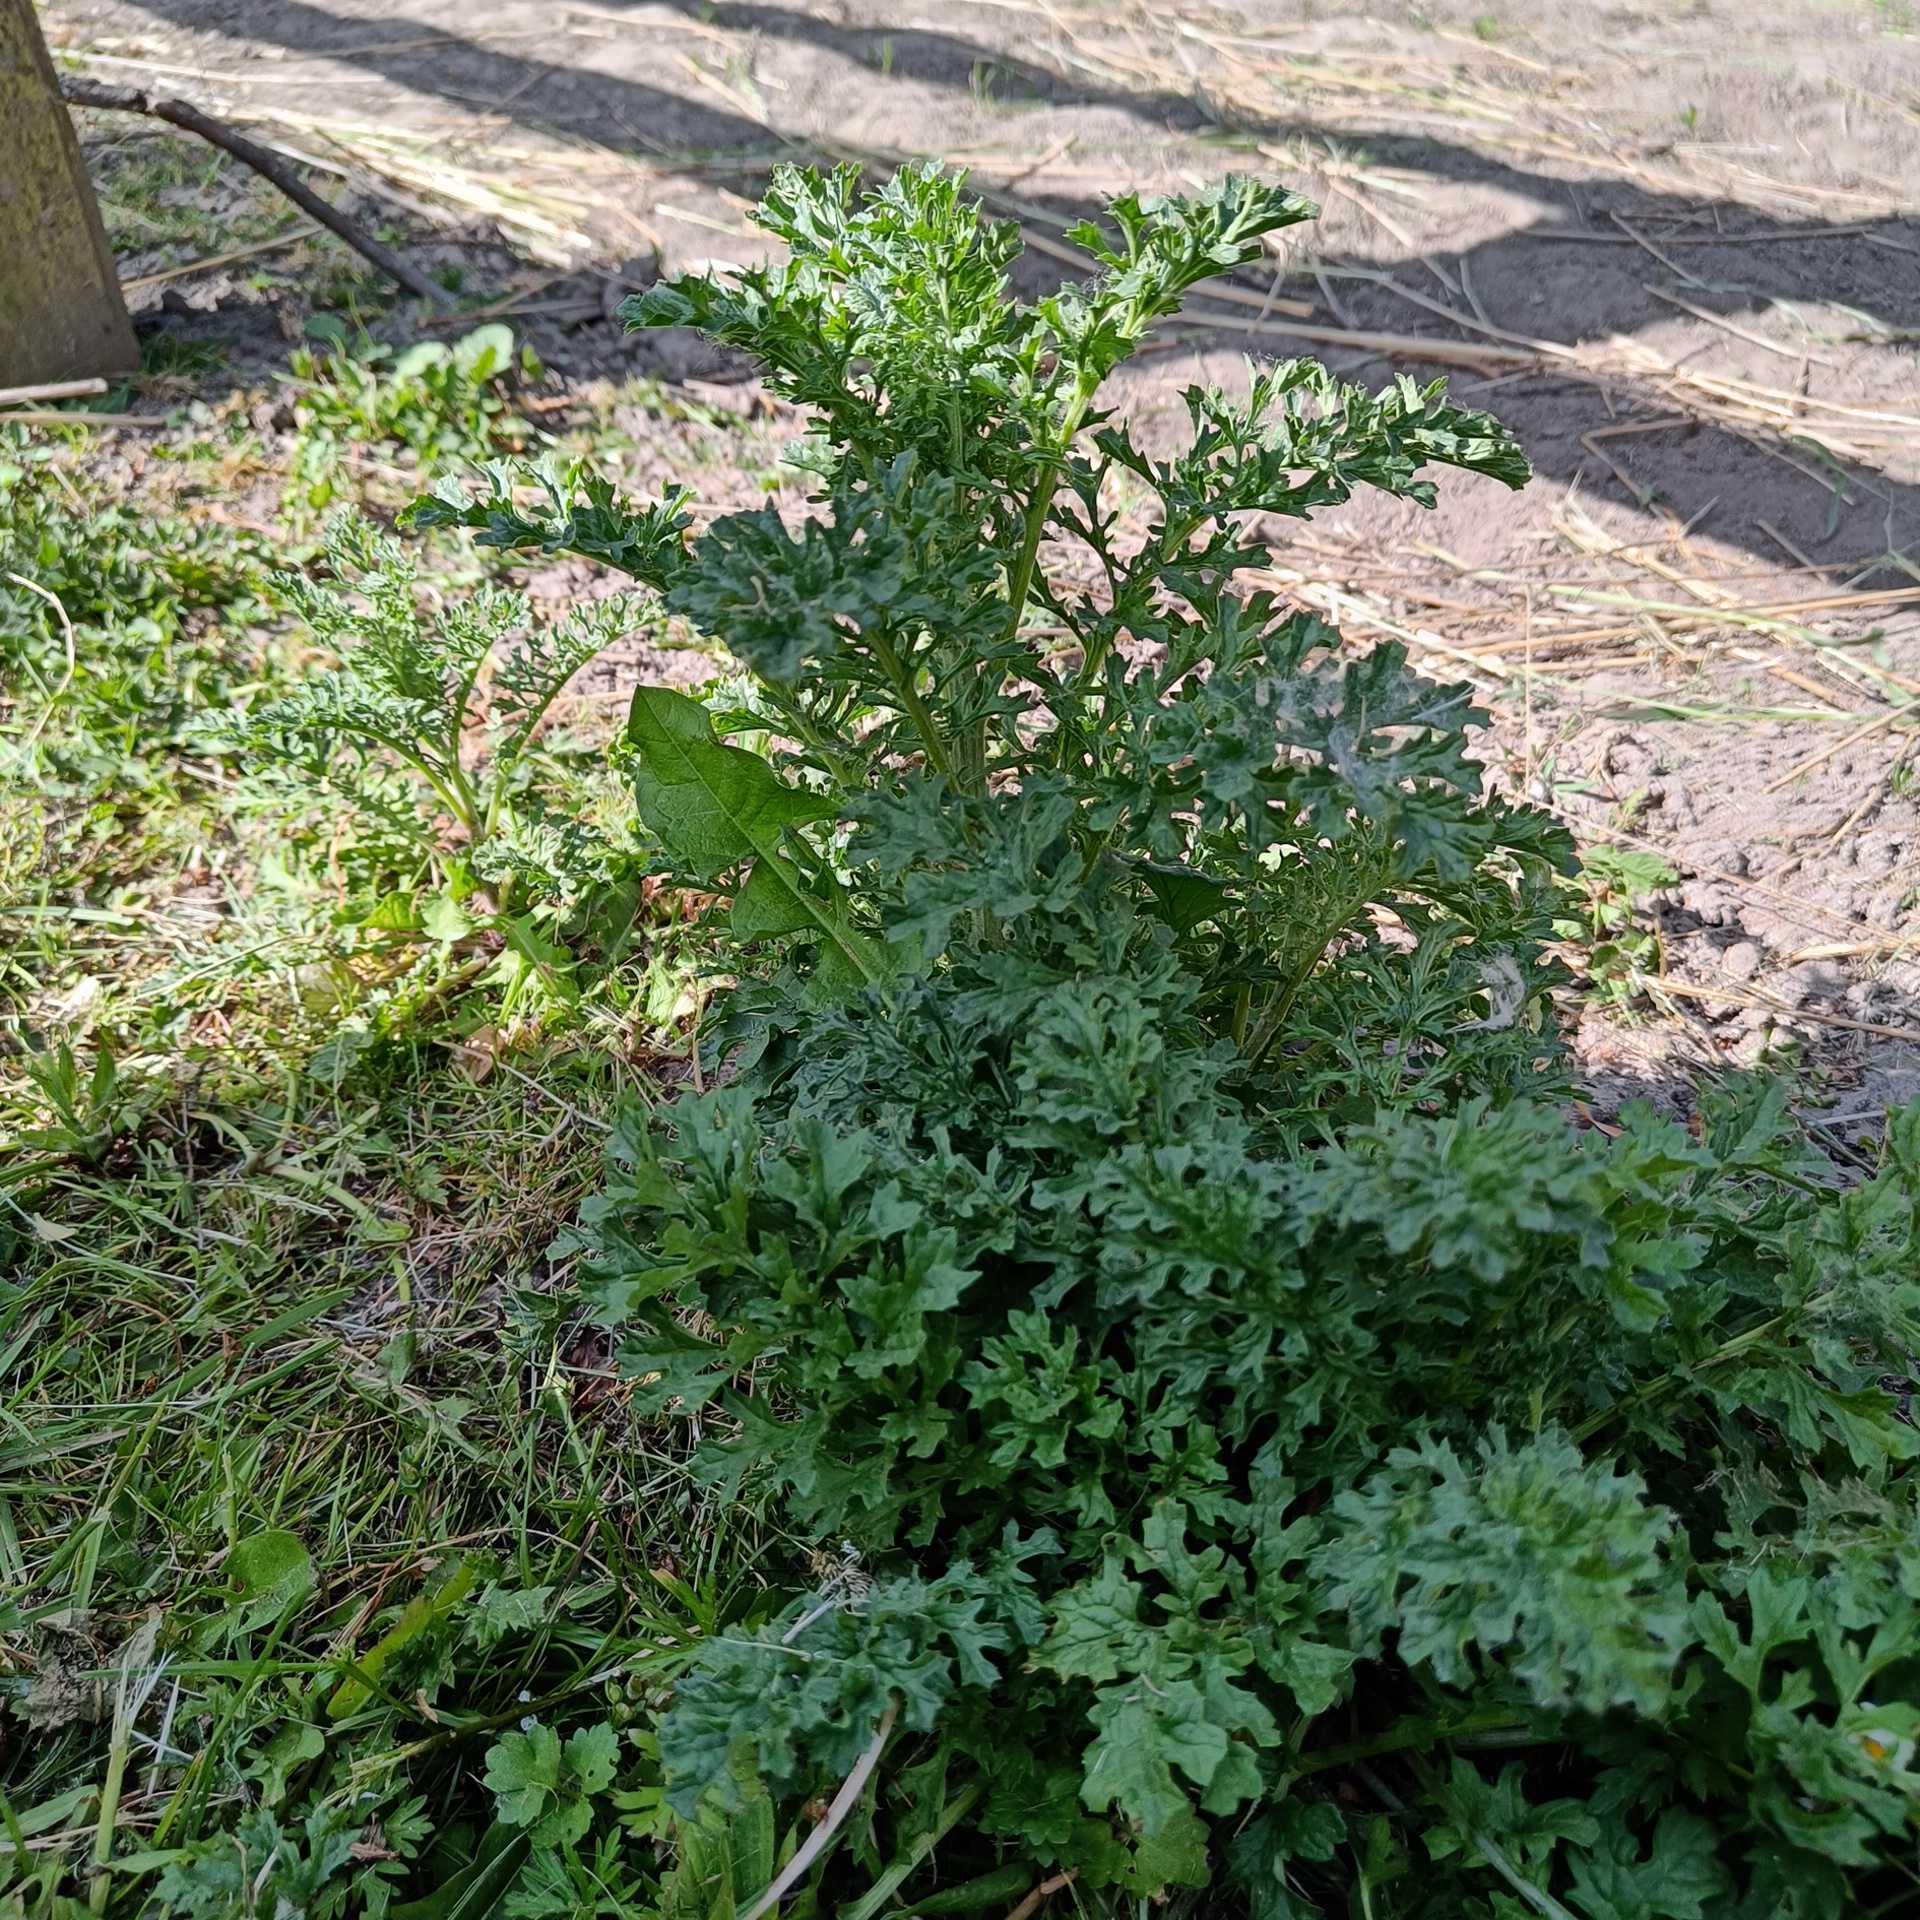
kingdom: Plantae
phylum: Tracheophyta
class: Magnoliopsida
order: Asterales
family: Asteraceae
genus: Jacobaea
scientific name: Jacobaea vulgaris
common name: Eng-brandbæger
